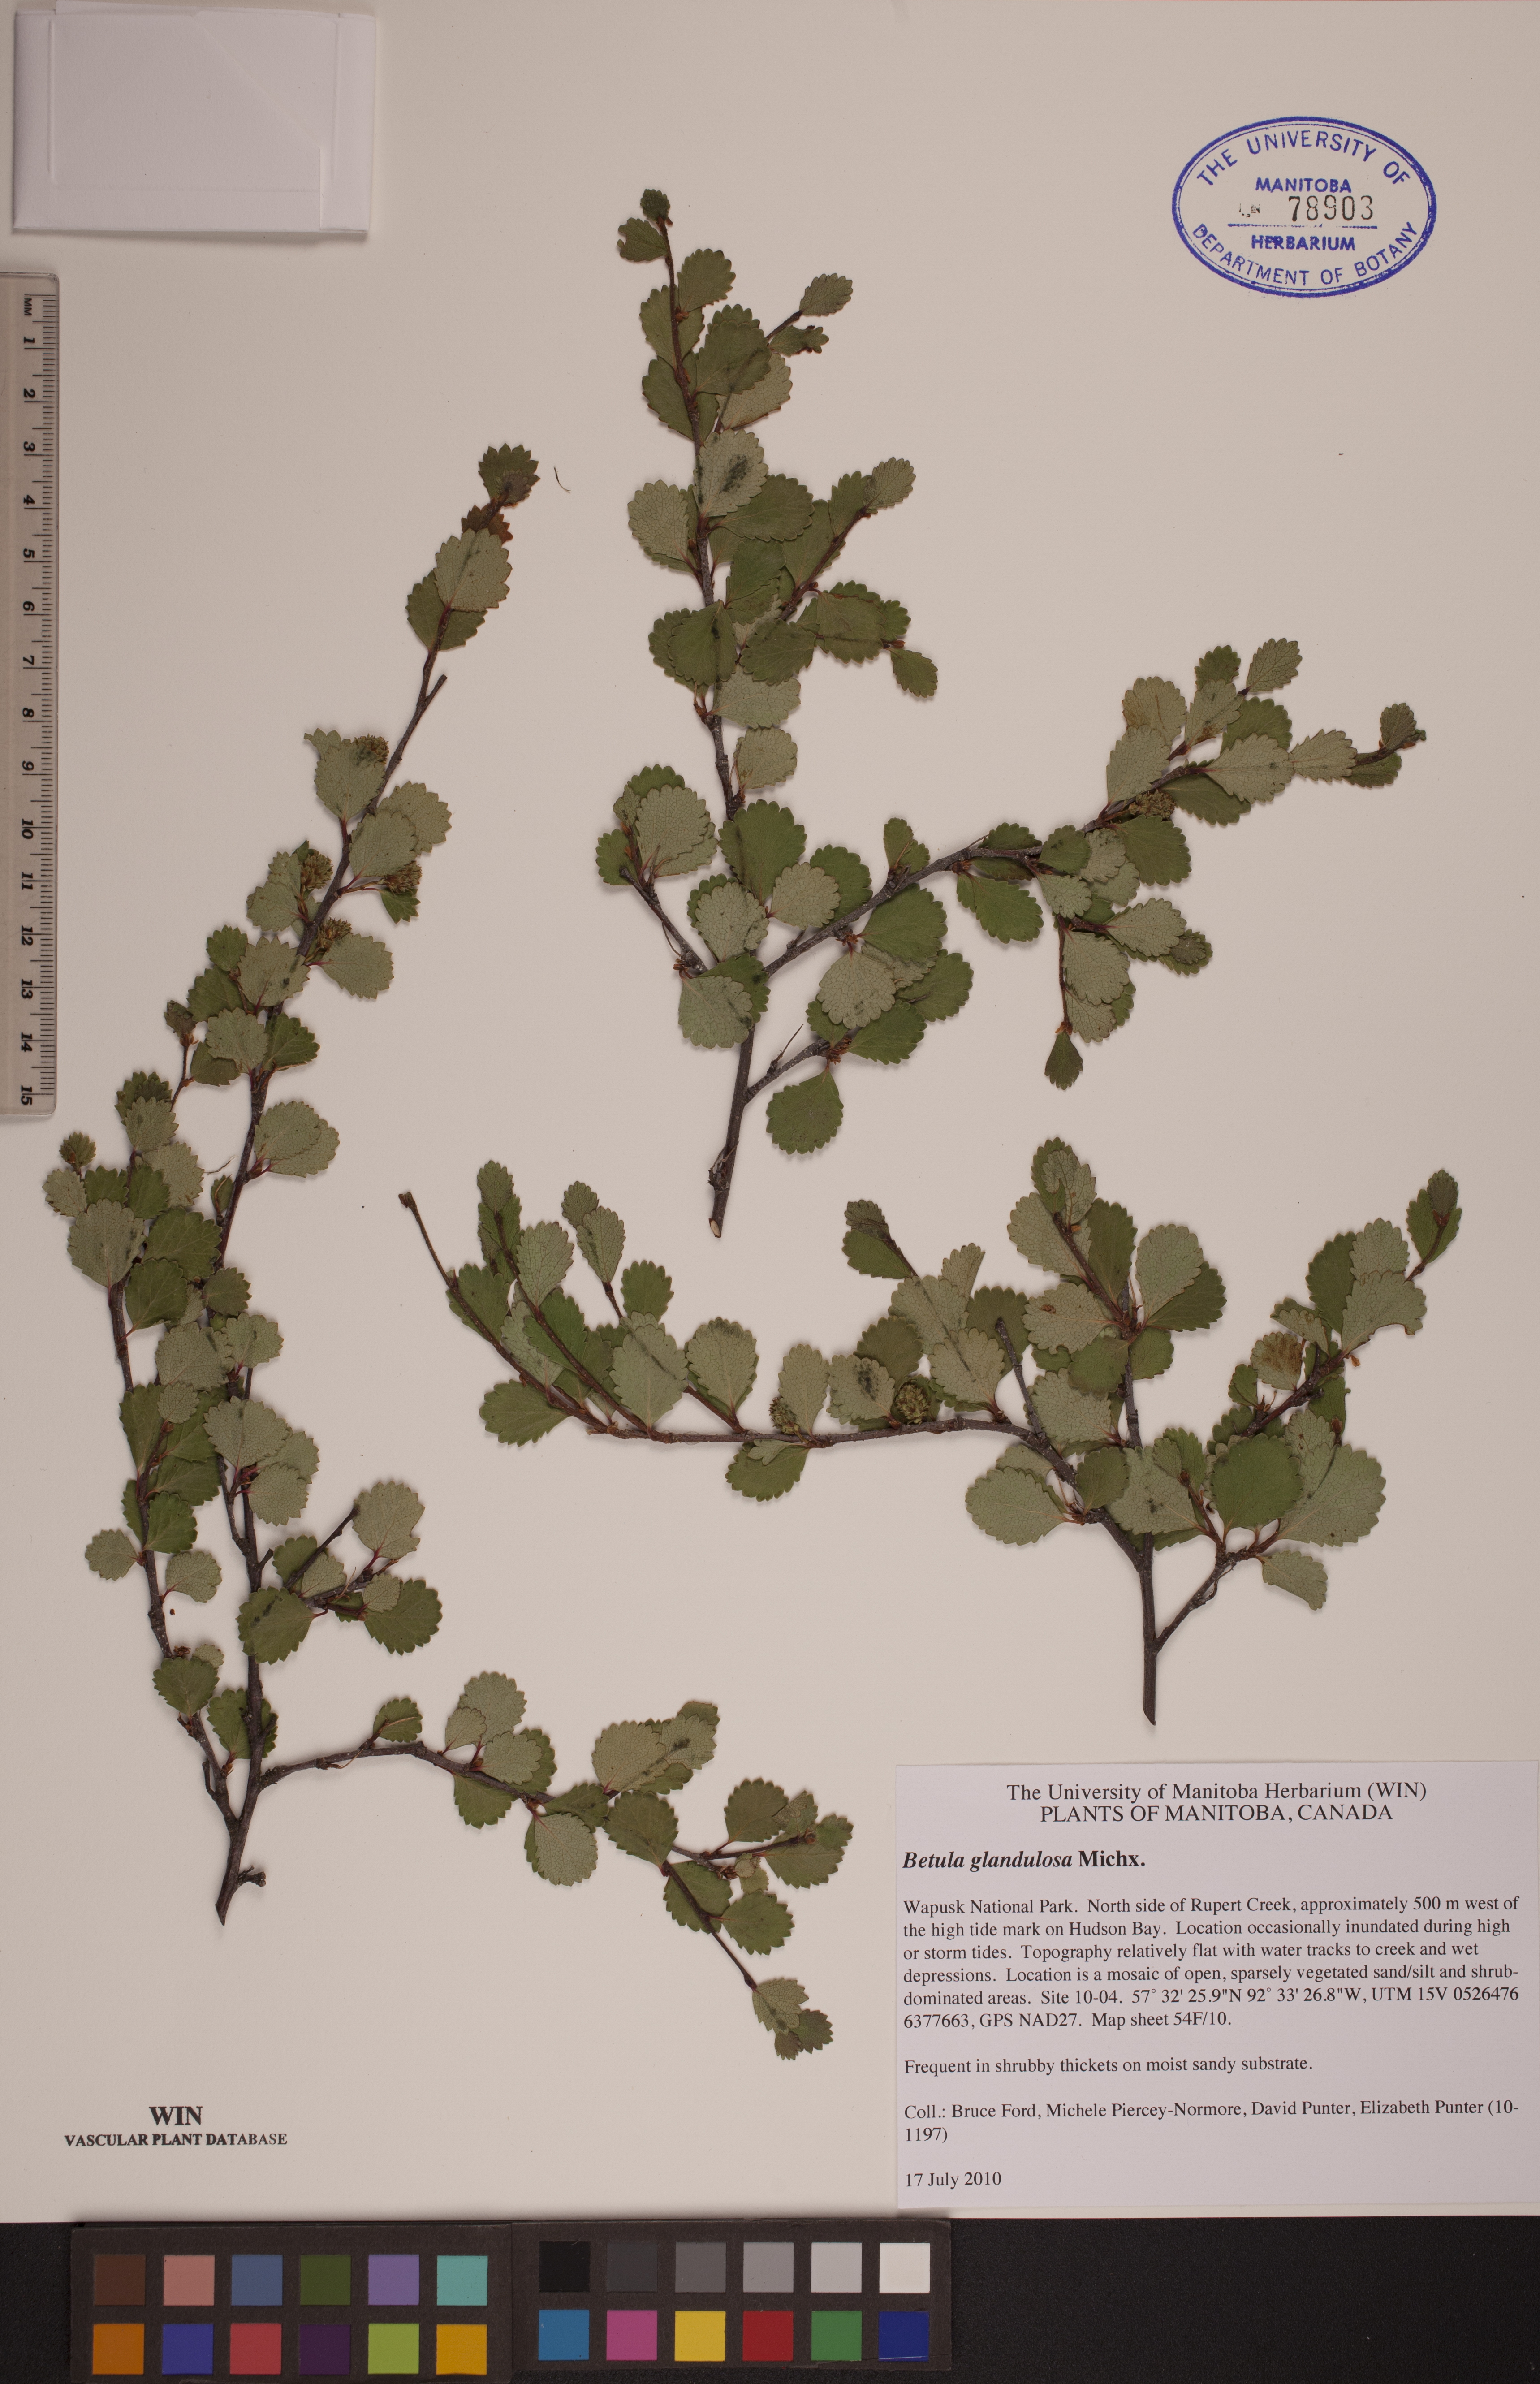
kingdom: Plantae
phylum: Tracheophyta
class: Magnoliopsida
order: Fagales
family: Betulaceae
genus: Betula
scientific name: Betula glandulosa
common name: Dwarf birch
